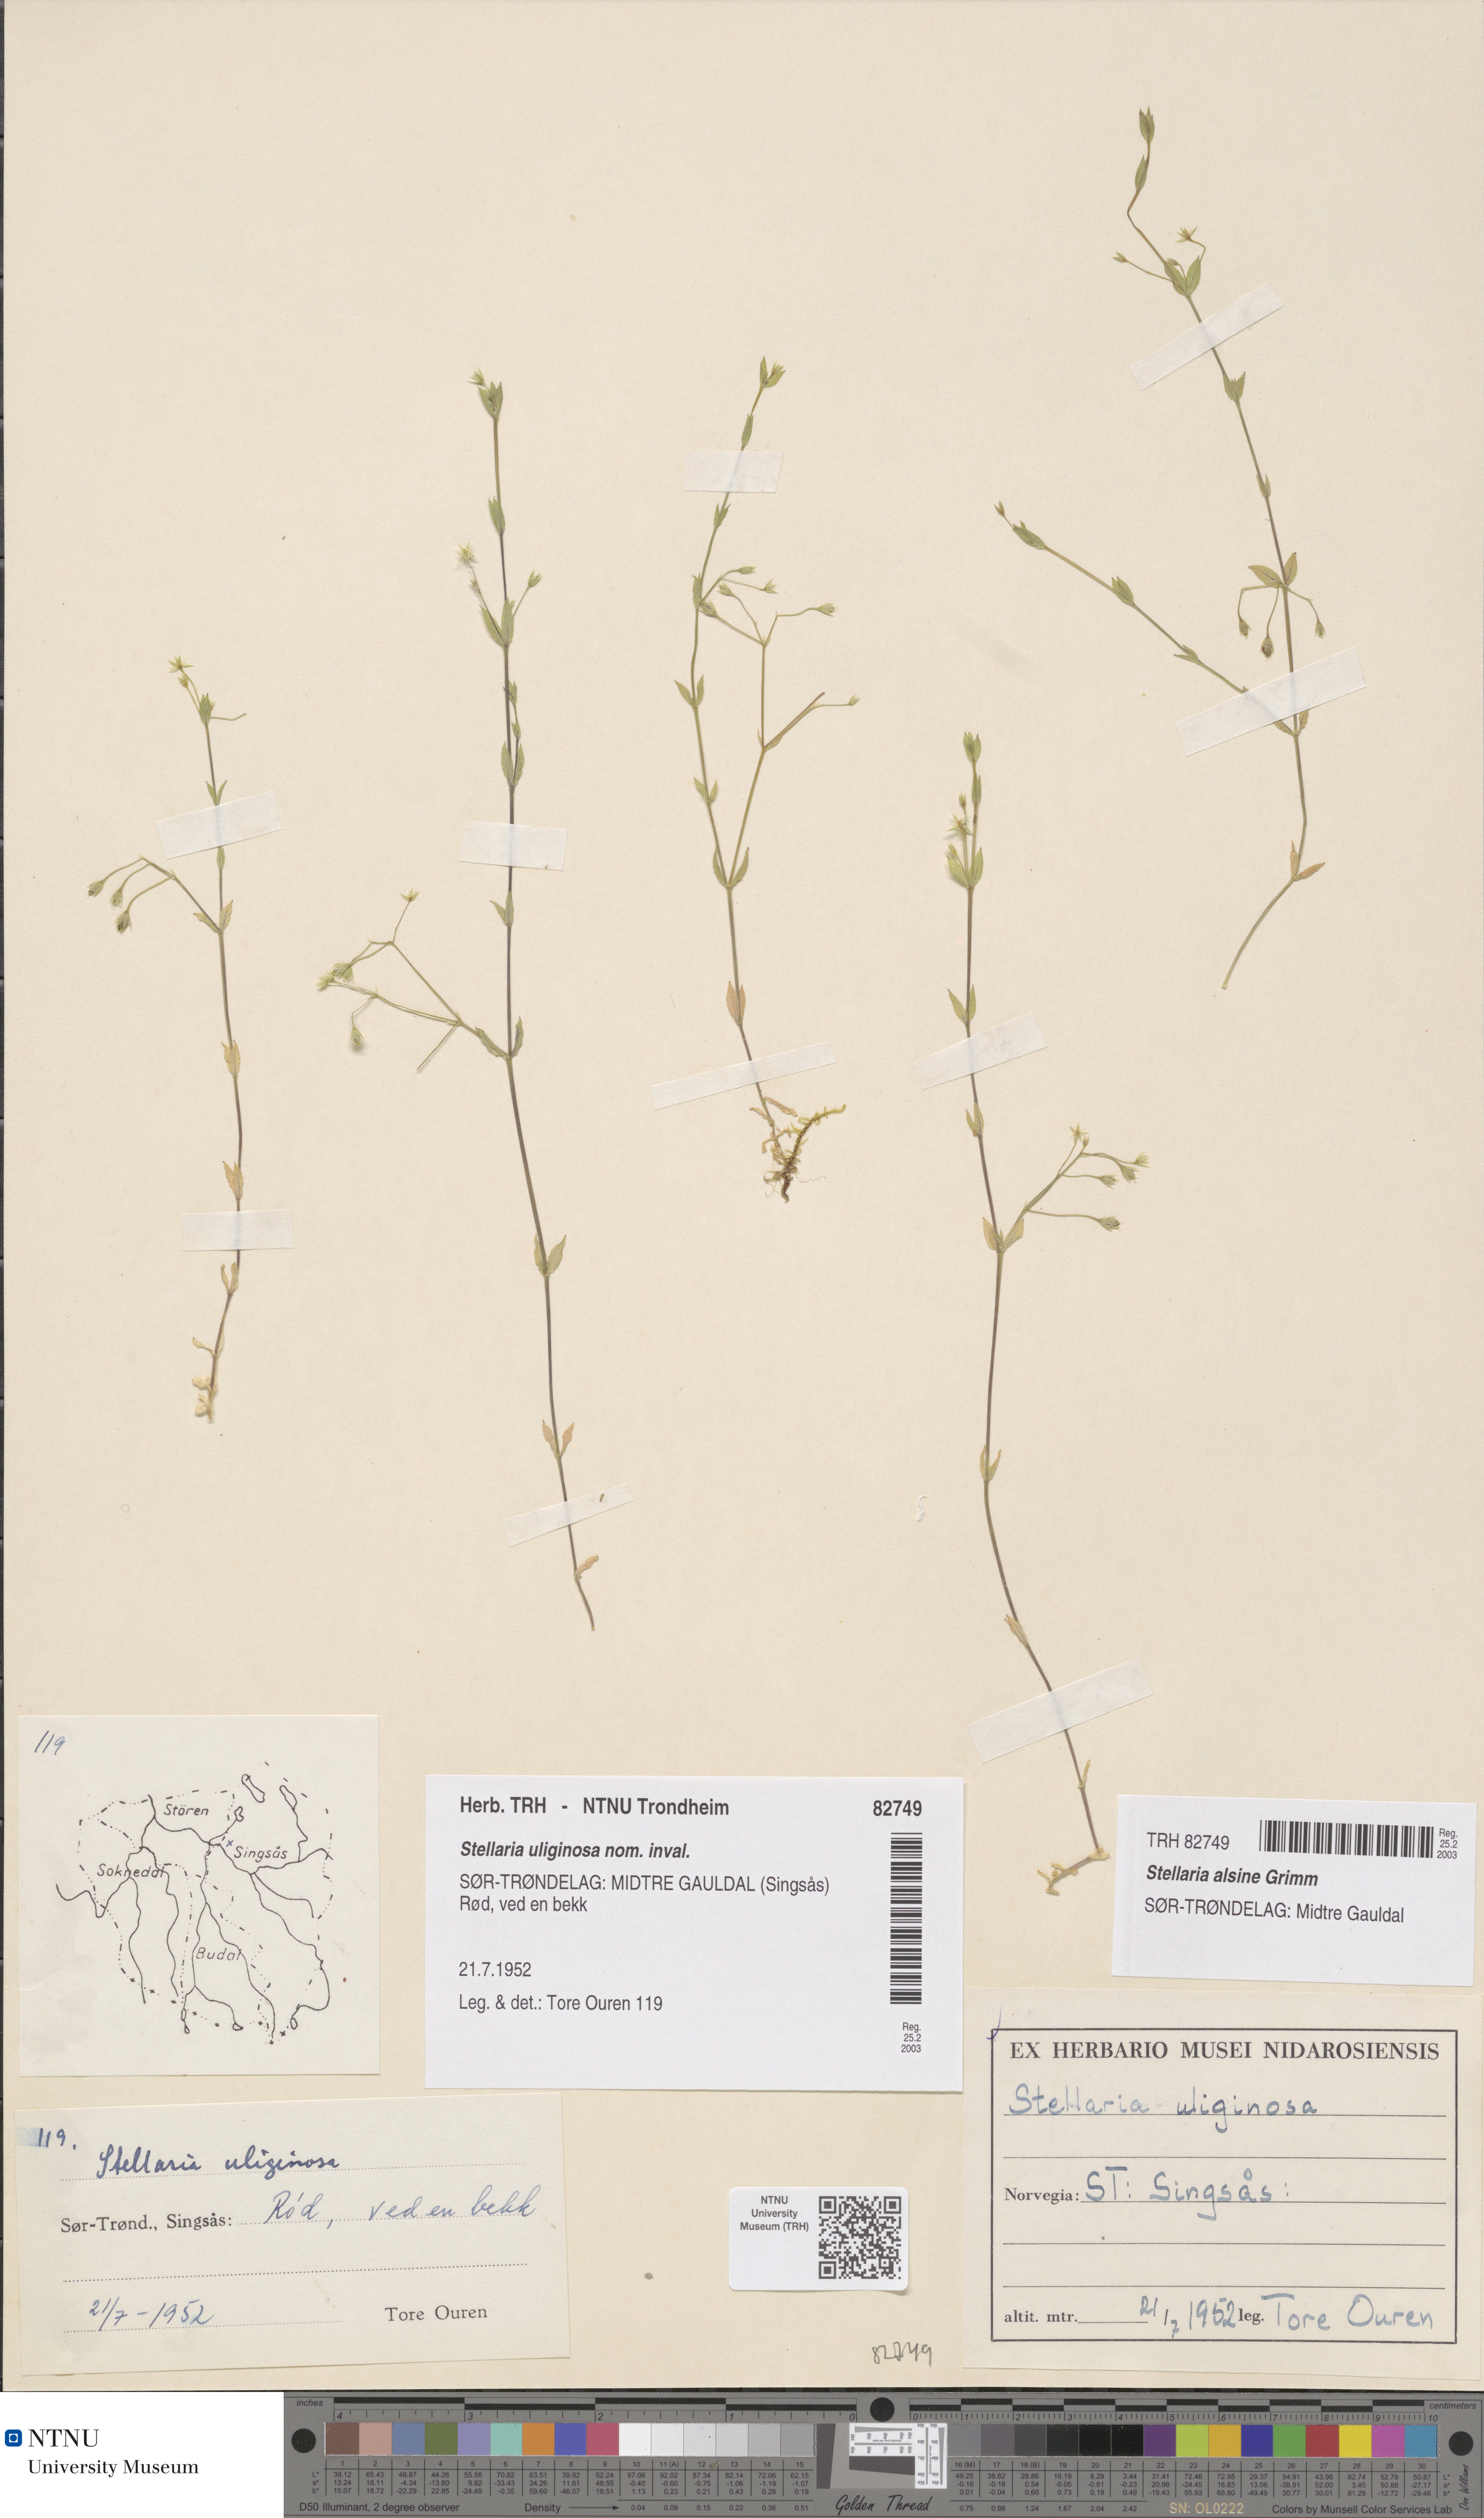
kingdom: Plantae
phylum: Tracheophyta
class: Magnoliopsida
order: Caryophyllales
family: Caryophyllaceae
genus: Stellaria
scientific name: Stellaria alsine
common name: Bog stitchwort
